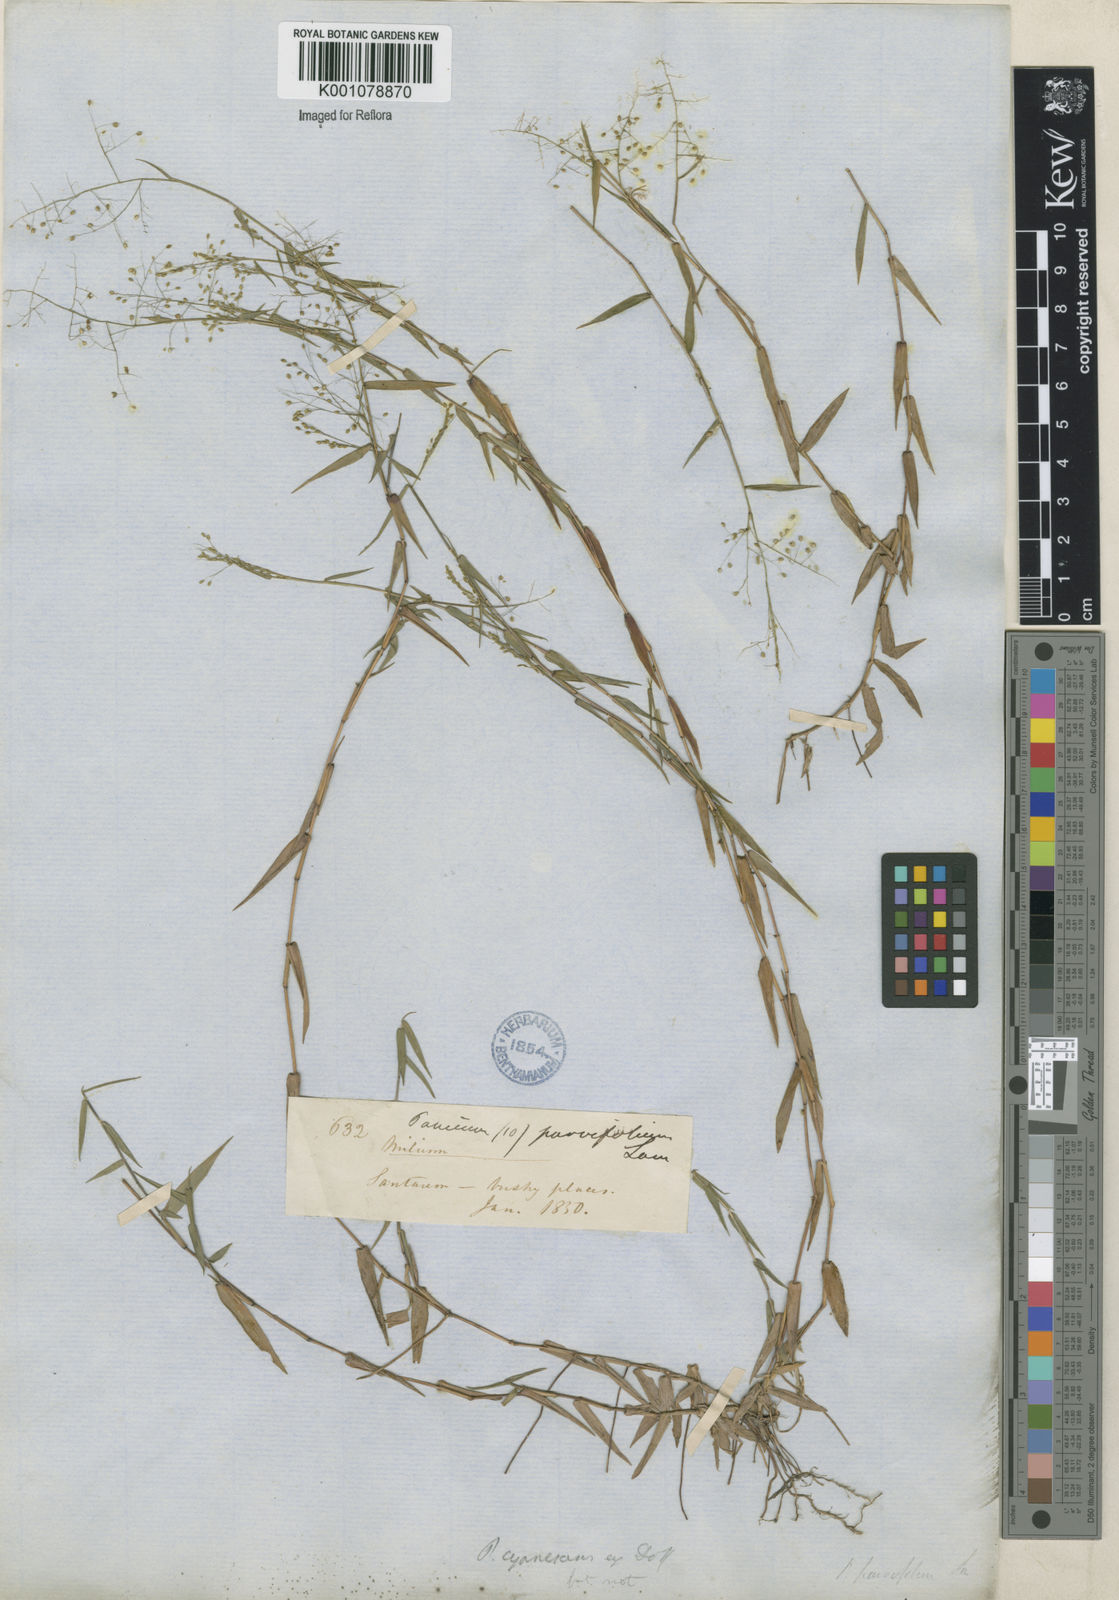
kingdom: Plantae
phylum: Tracheophyta
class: Liliopsida
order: Poales
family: Poaceae
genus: Trichanthecium
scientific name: Trichanthecium parvifolium
